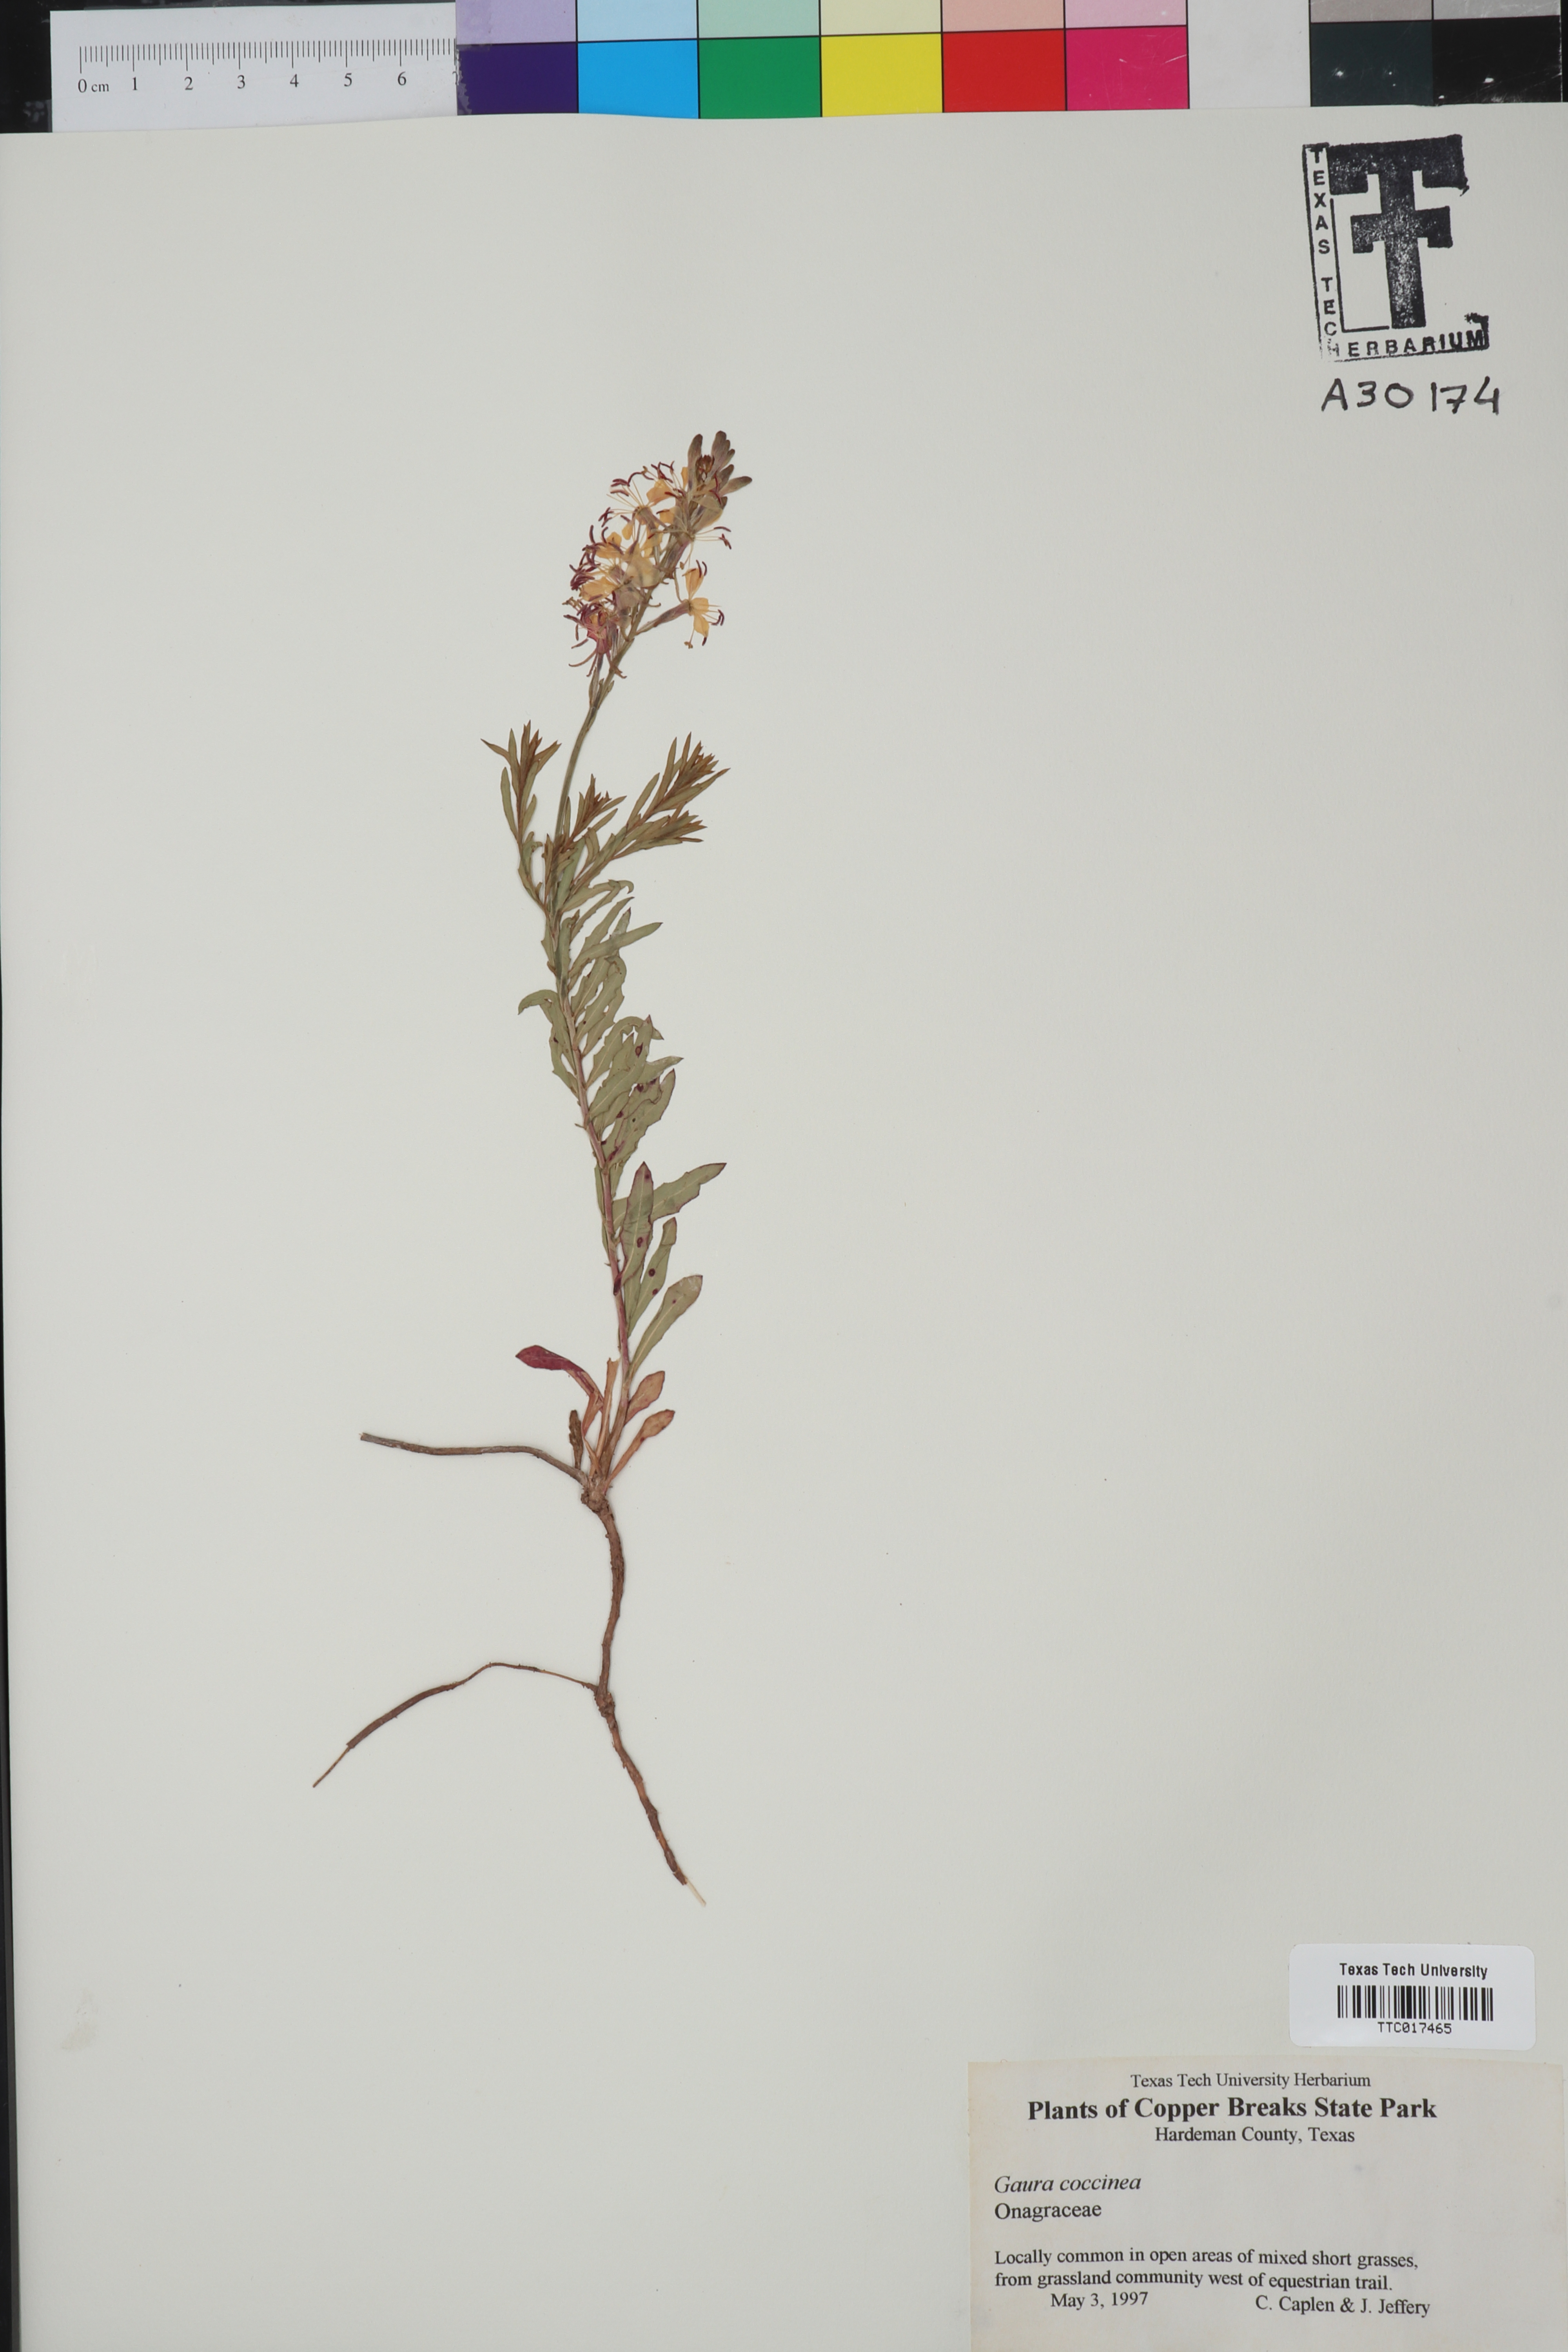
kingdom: Plantae
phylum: Tracheophyta
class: Magnoliopsida
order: Myrtales
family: Onagraceae
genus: Oenothera
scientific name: Oenothera suffrutescens
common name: Scarlet beeblossom
